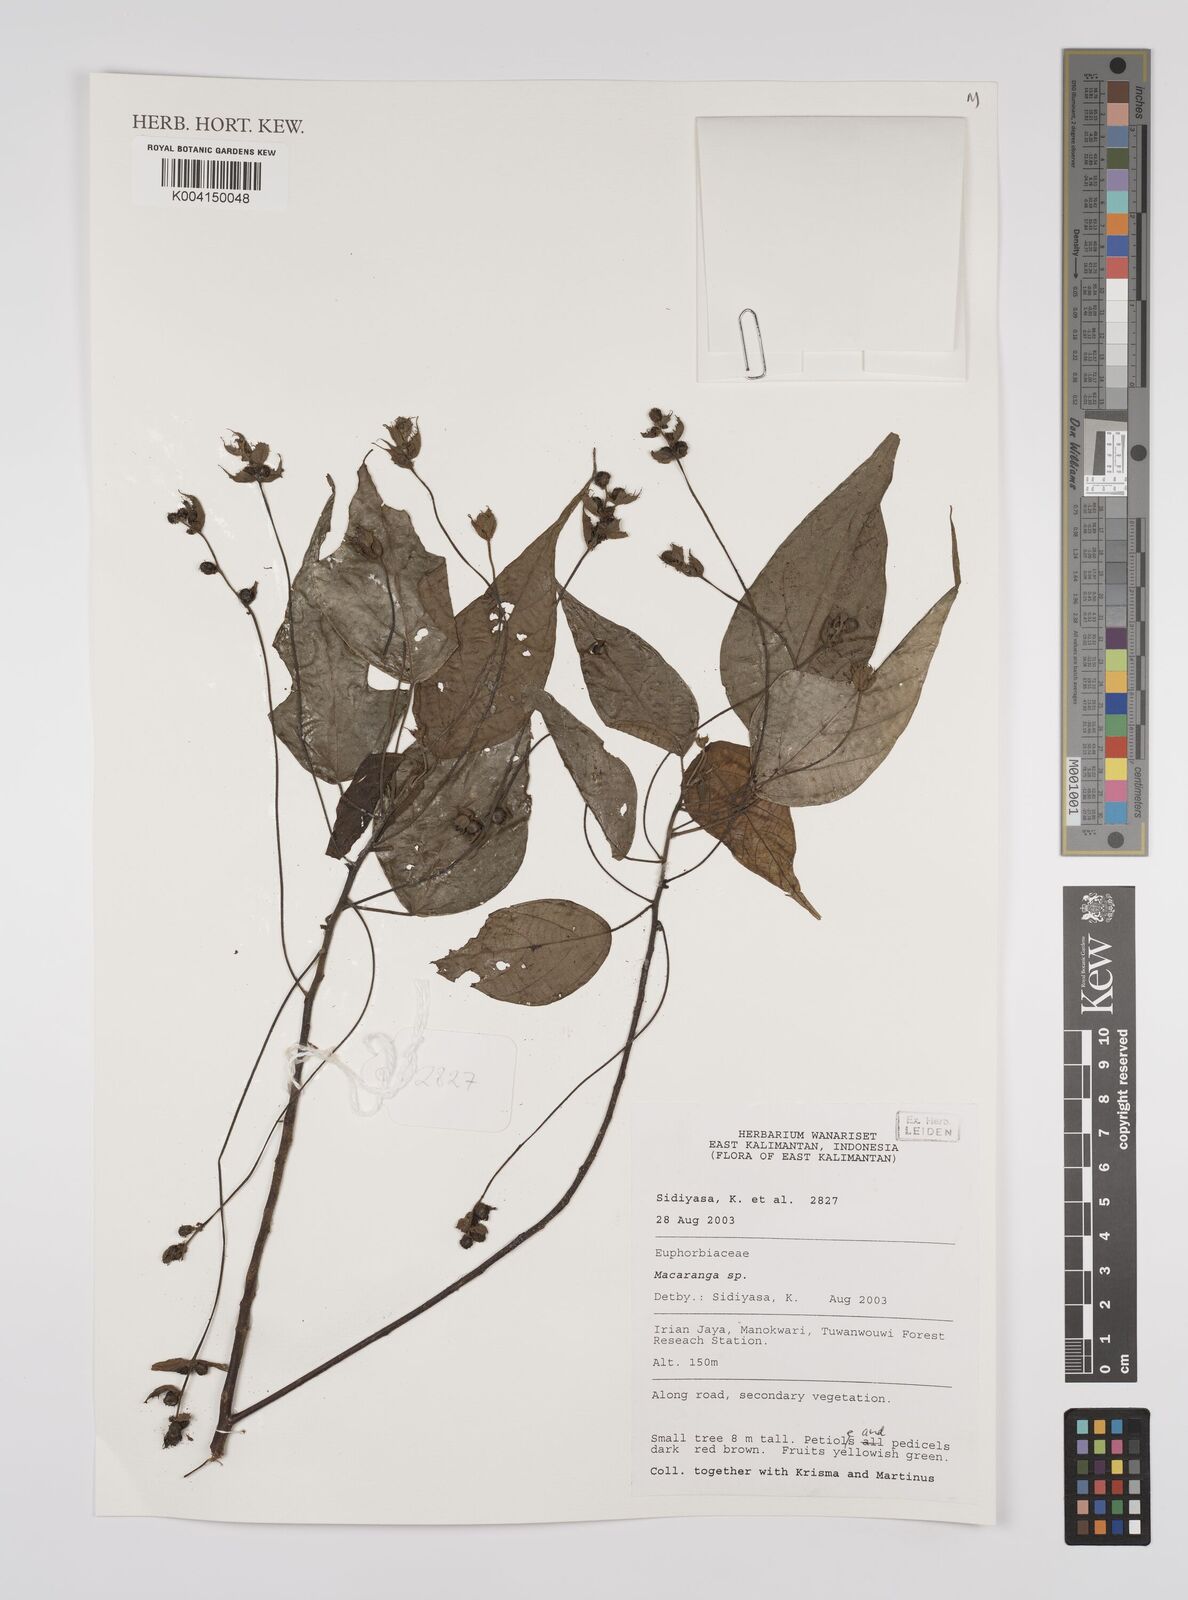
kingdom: Plantae
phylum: Tracheophyta
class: Magnoliopsida
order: Malpighiales
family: Euphorbiaceae
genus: Macaranga
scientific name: Macaranga
